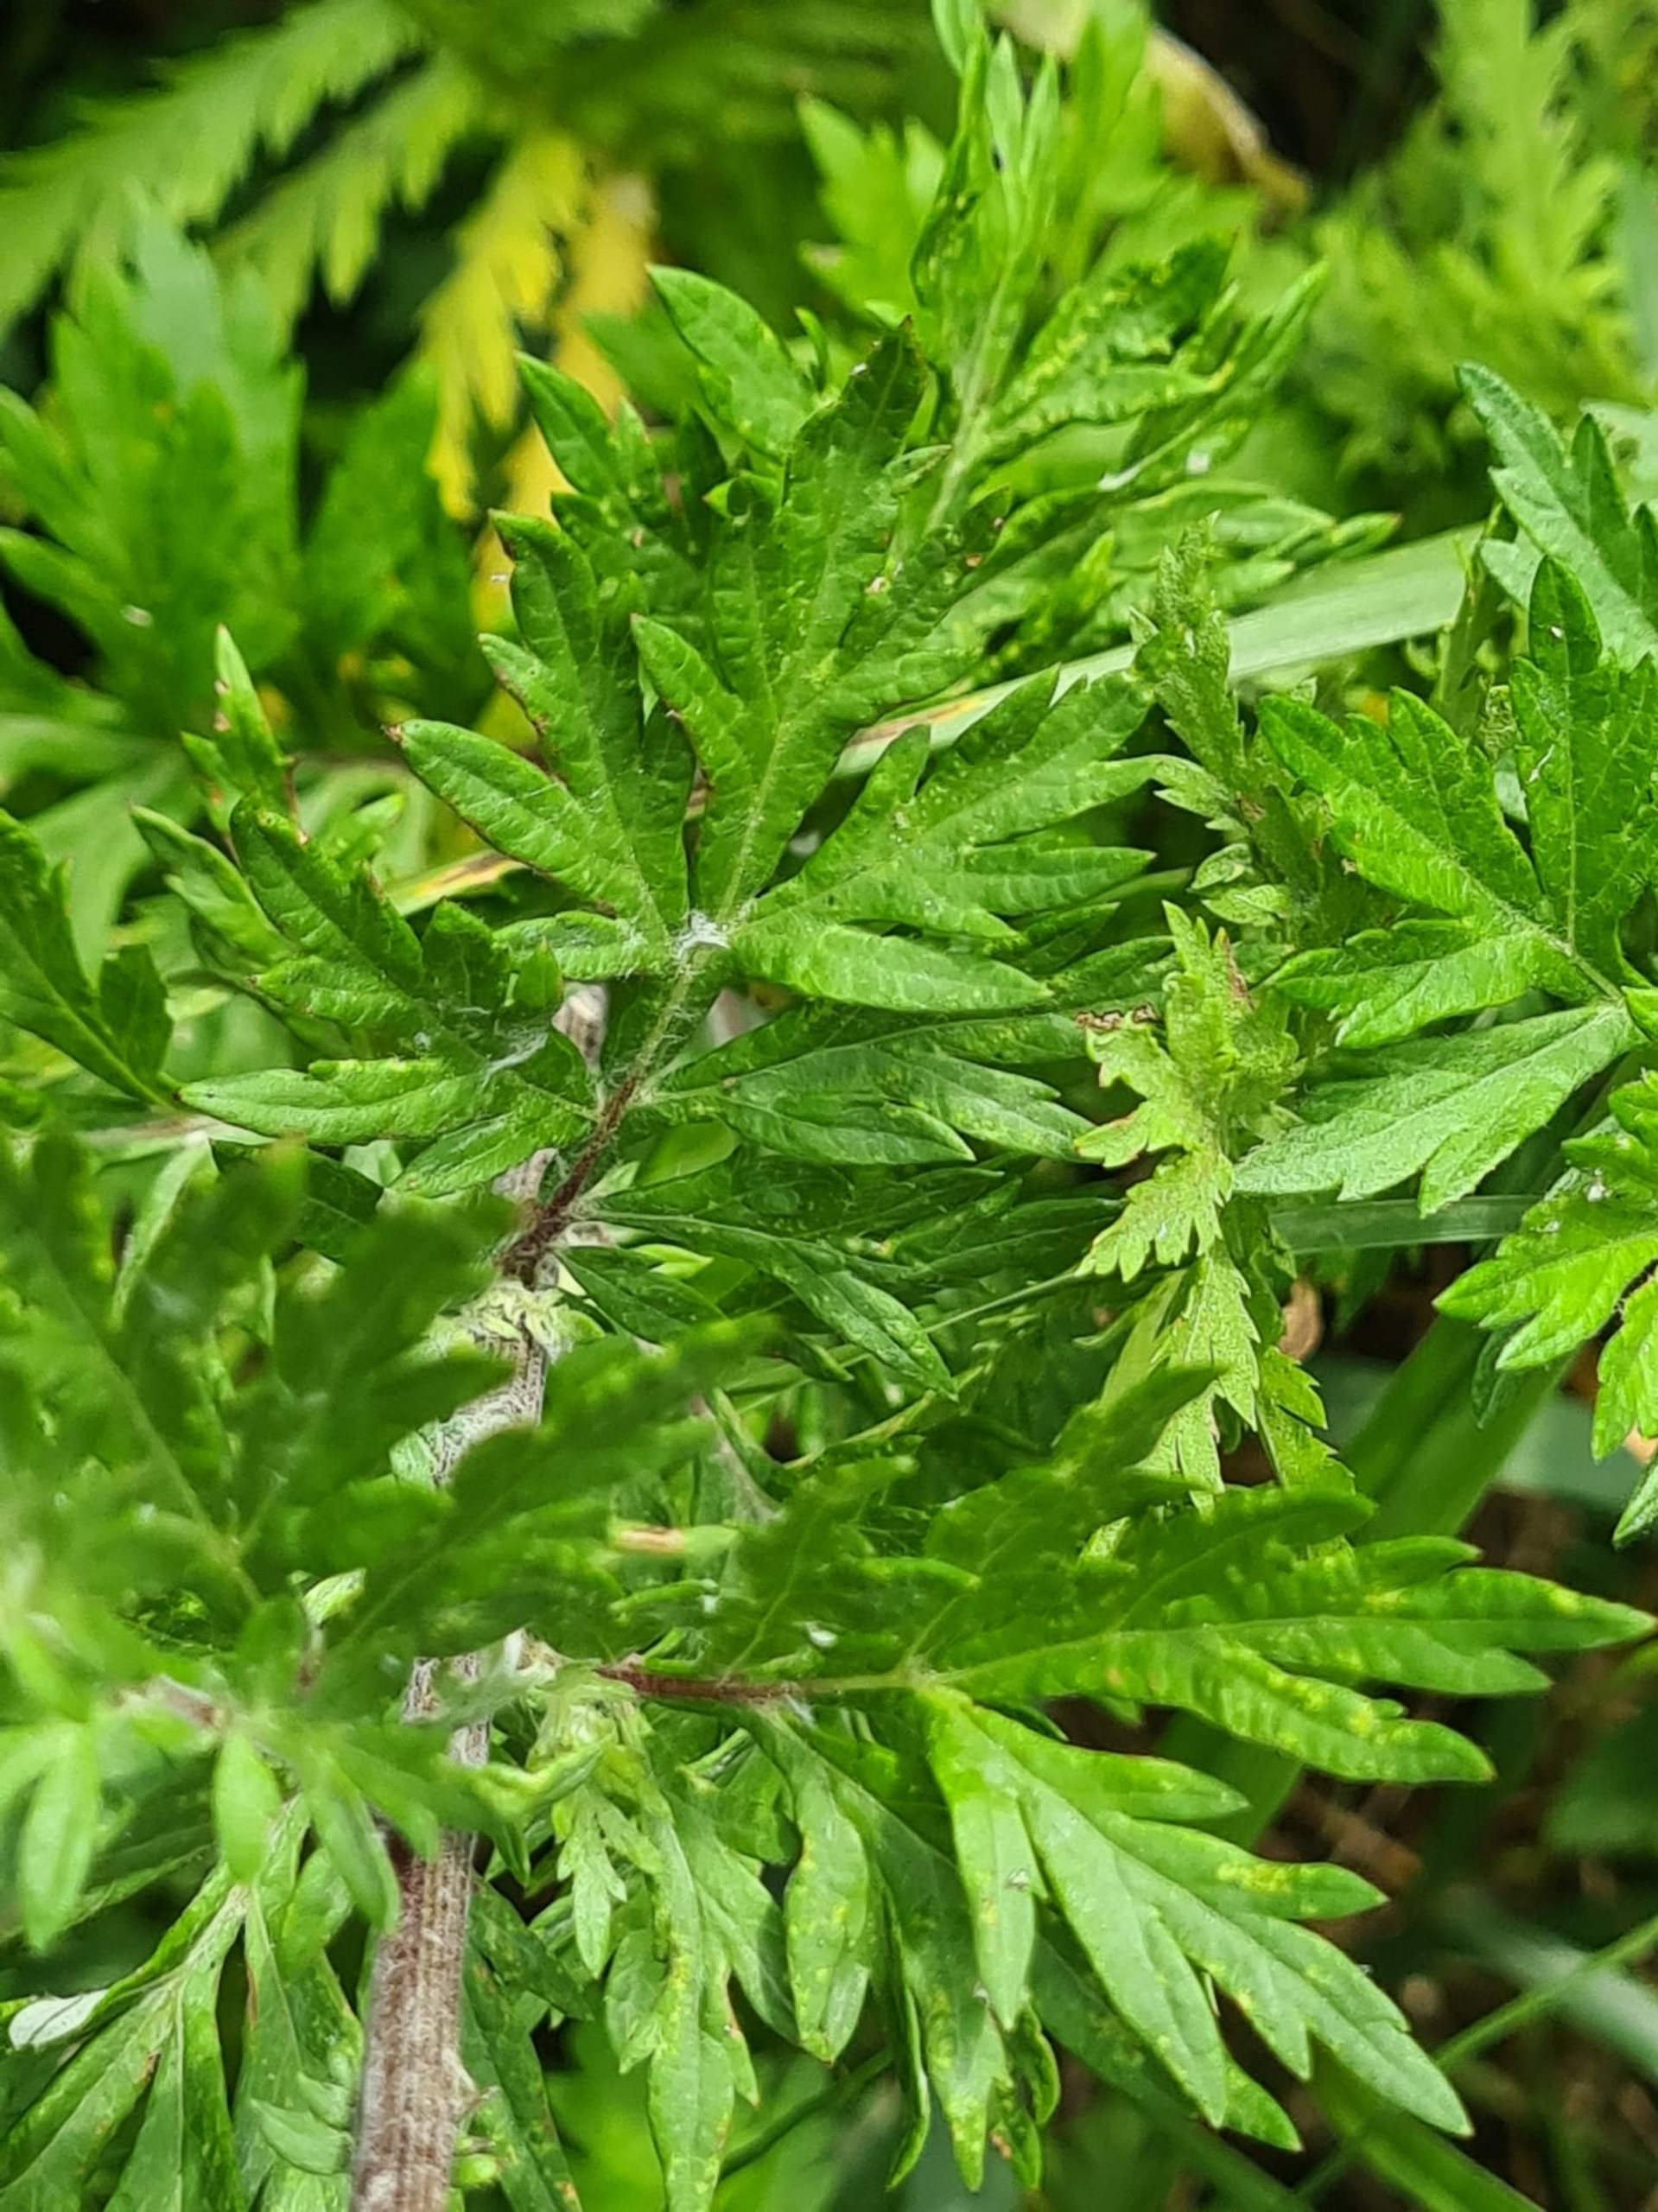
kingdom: Plantae
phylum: Tracheophyta
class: Magnoliopsida
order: Asterales
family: Asteraceae
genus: Artemisia
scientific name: Artemisia vulgaris
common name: Grå-bynke
